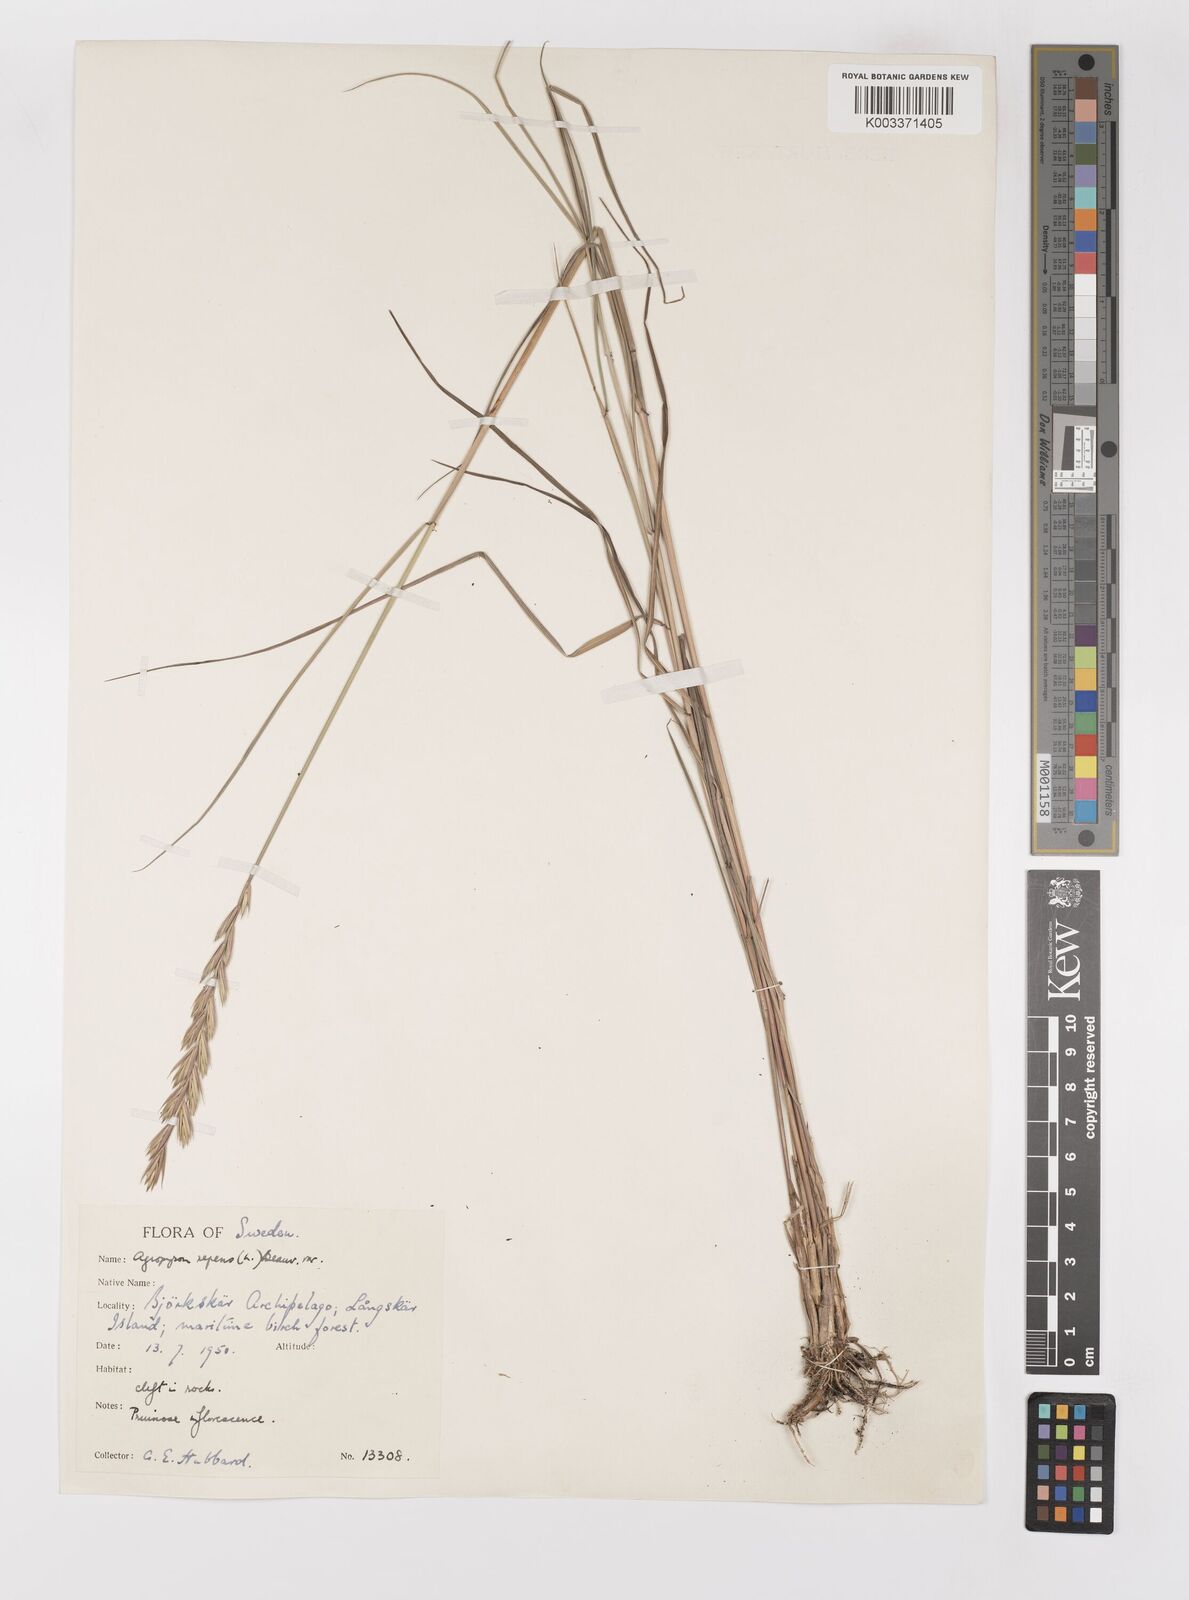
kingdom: Plantae
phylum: Tracheophyta
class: Liliopsida
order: Poales
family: Poaceae
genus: Elymus
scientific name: Elymus repens
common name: Quackgrass
